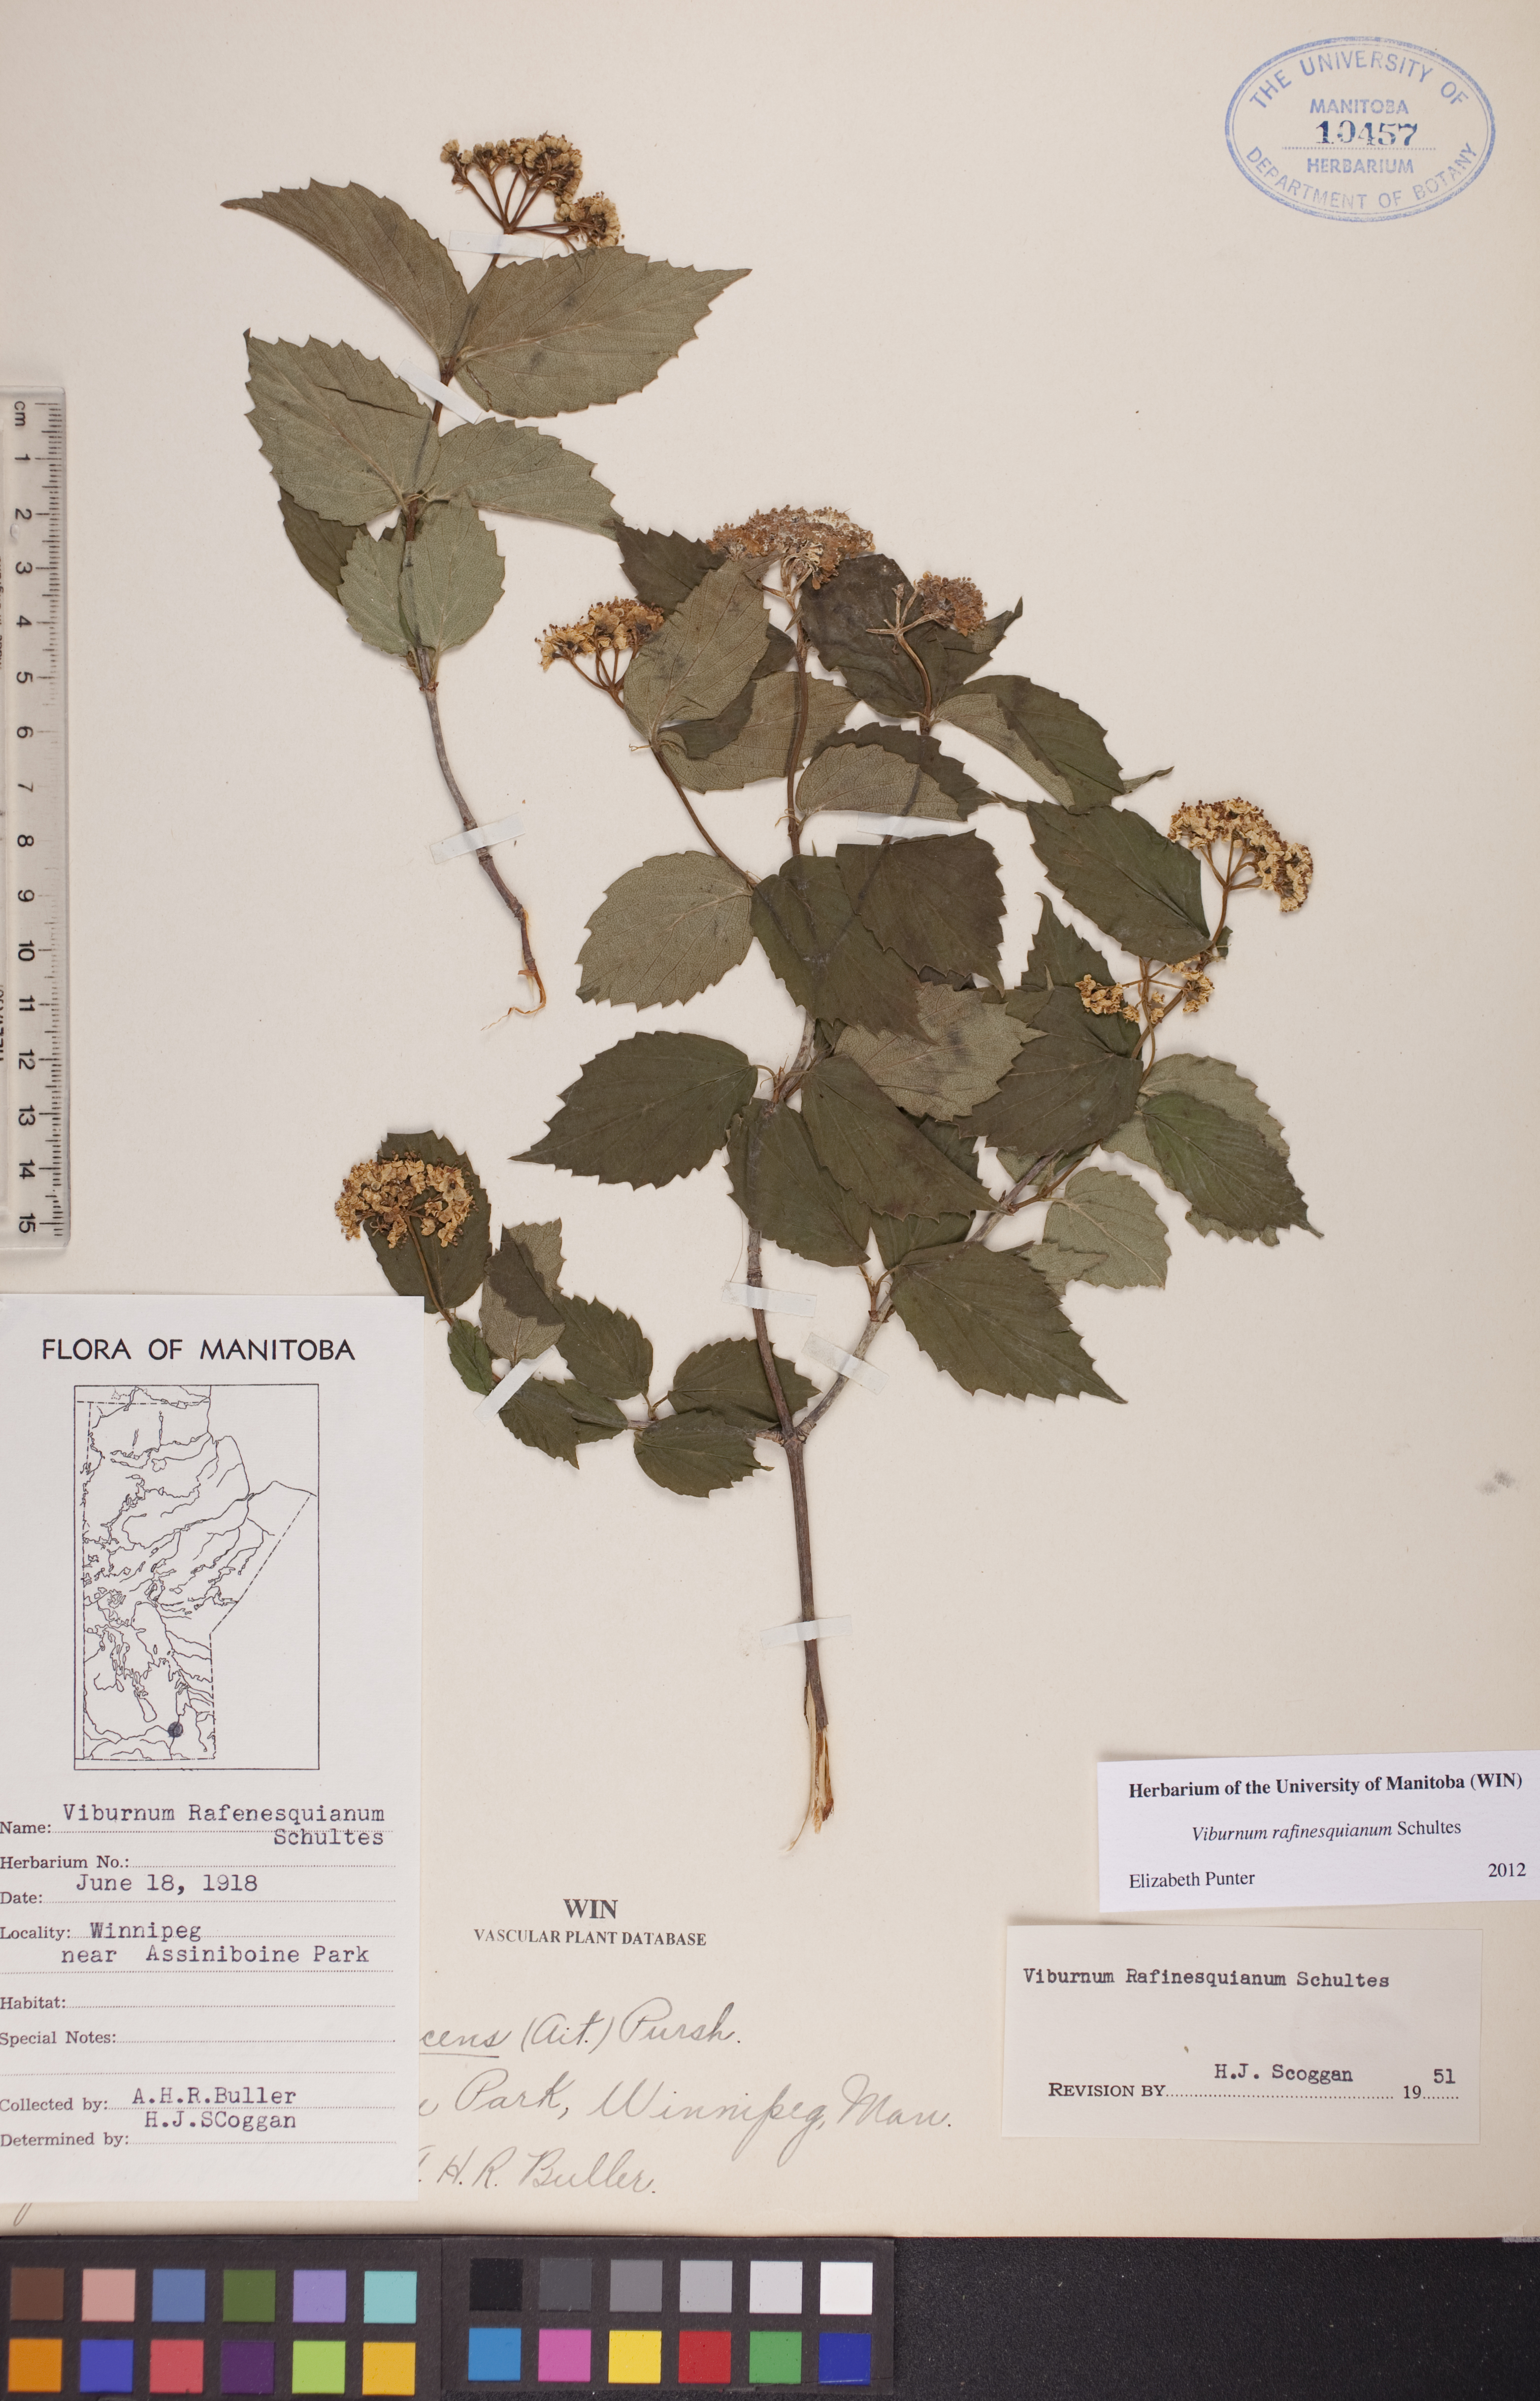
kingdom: Plantae
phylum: Tracheophyta
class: Magnoliopsida
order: Dipsacales
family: Viburnaceae
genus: Viburnum
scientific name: Viburnum rafinesquianum
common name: Downy arrow-wood
